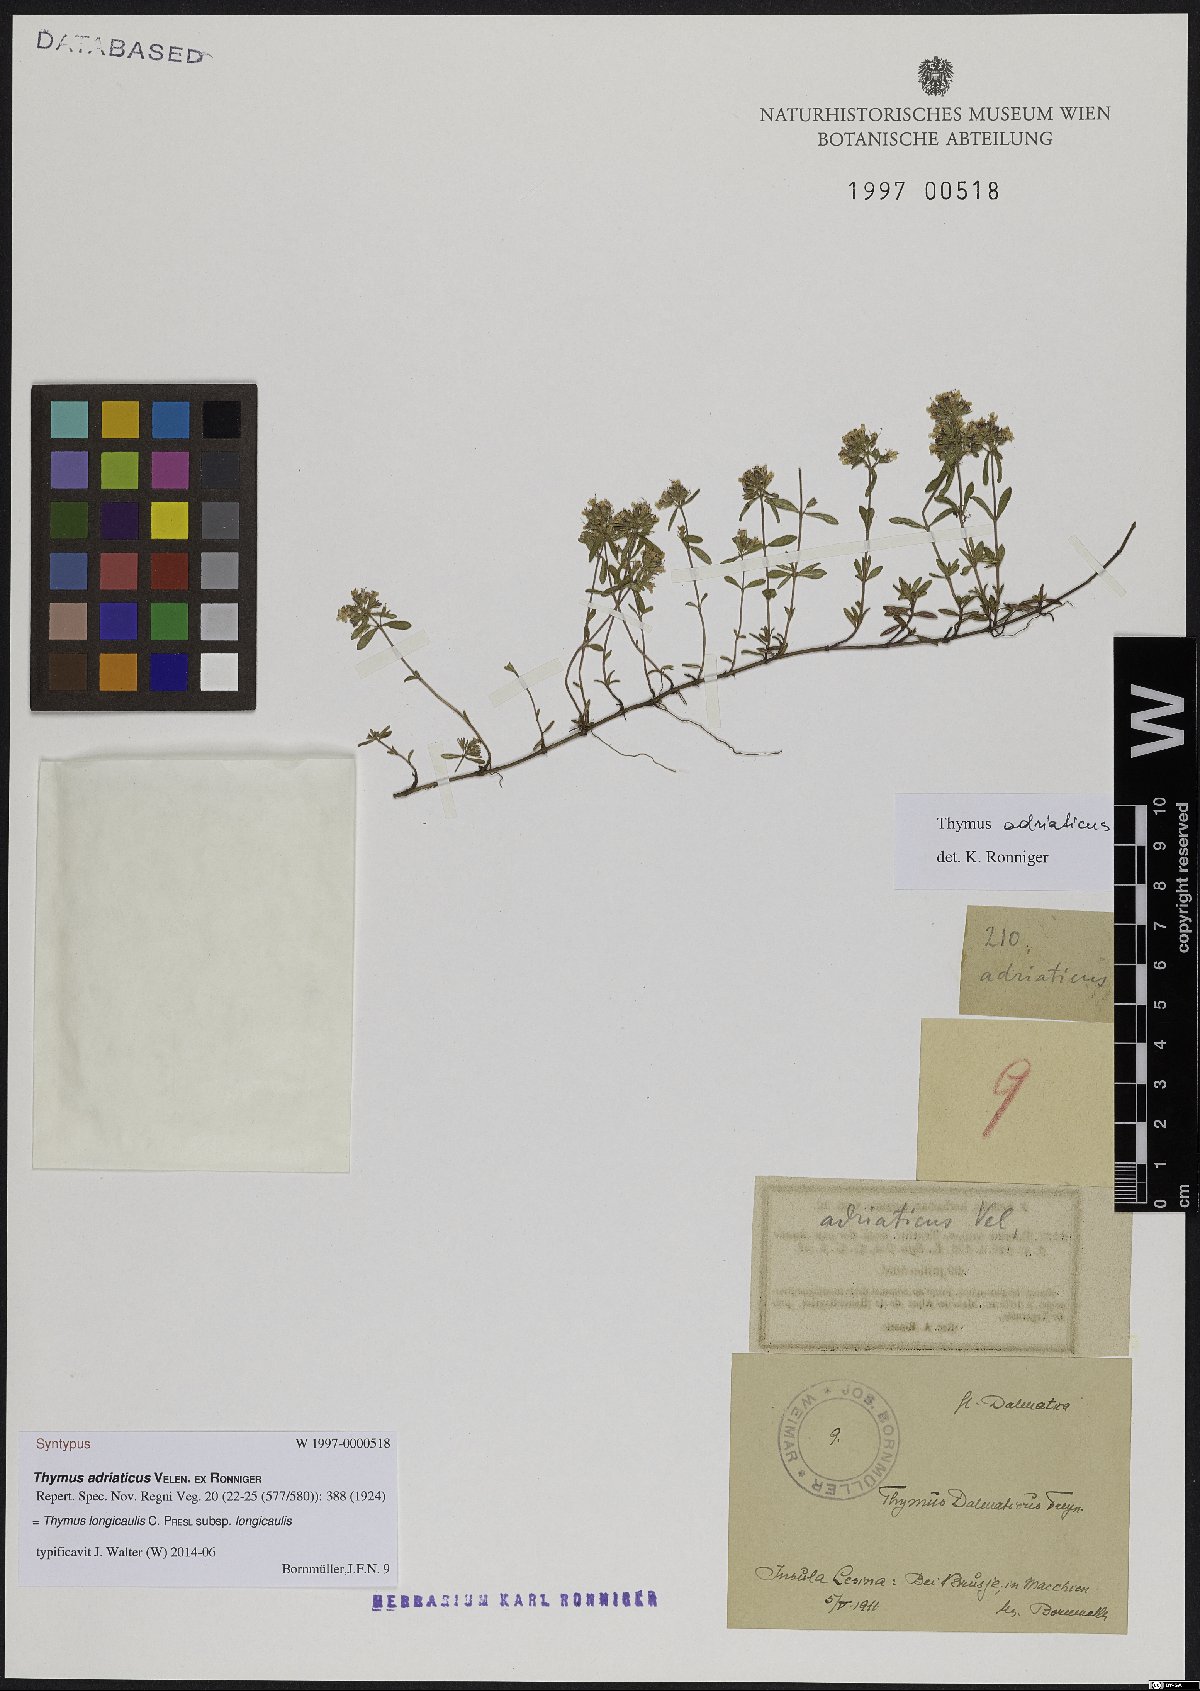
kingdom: Plantae
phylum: Tracheophyta
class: Magnoliopsida
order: Lamiales
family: Lamiaceae
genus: Thymus
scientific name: Thymus longicaulis
